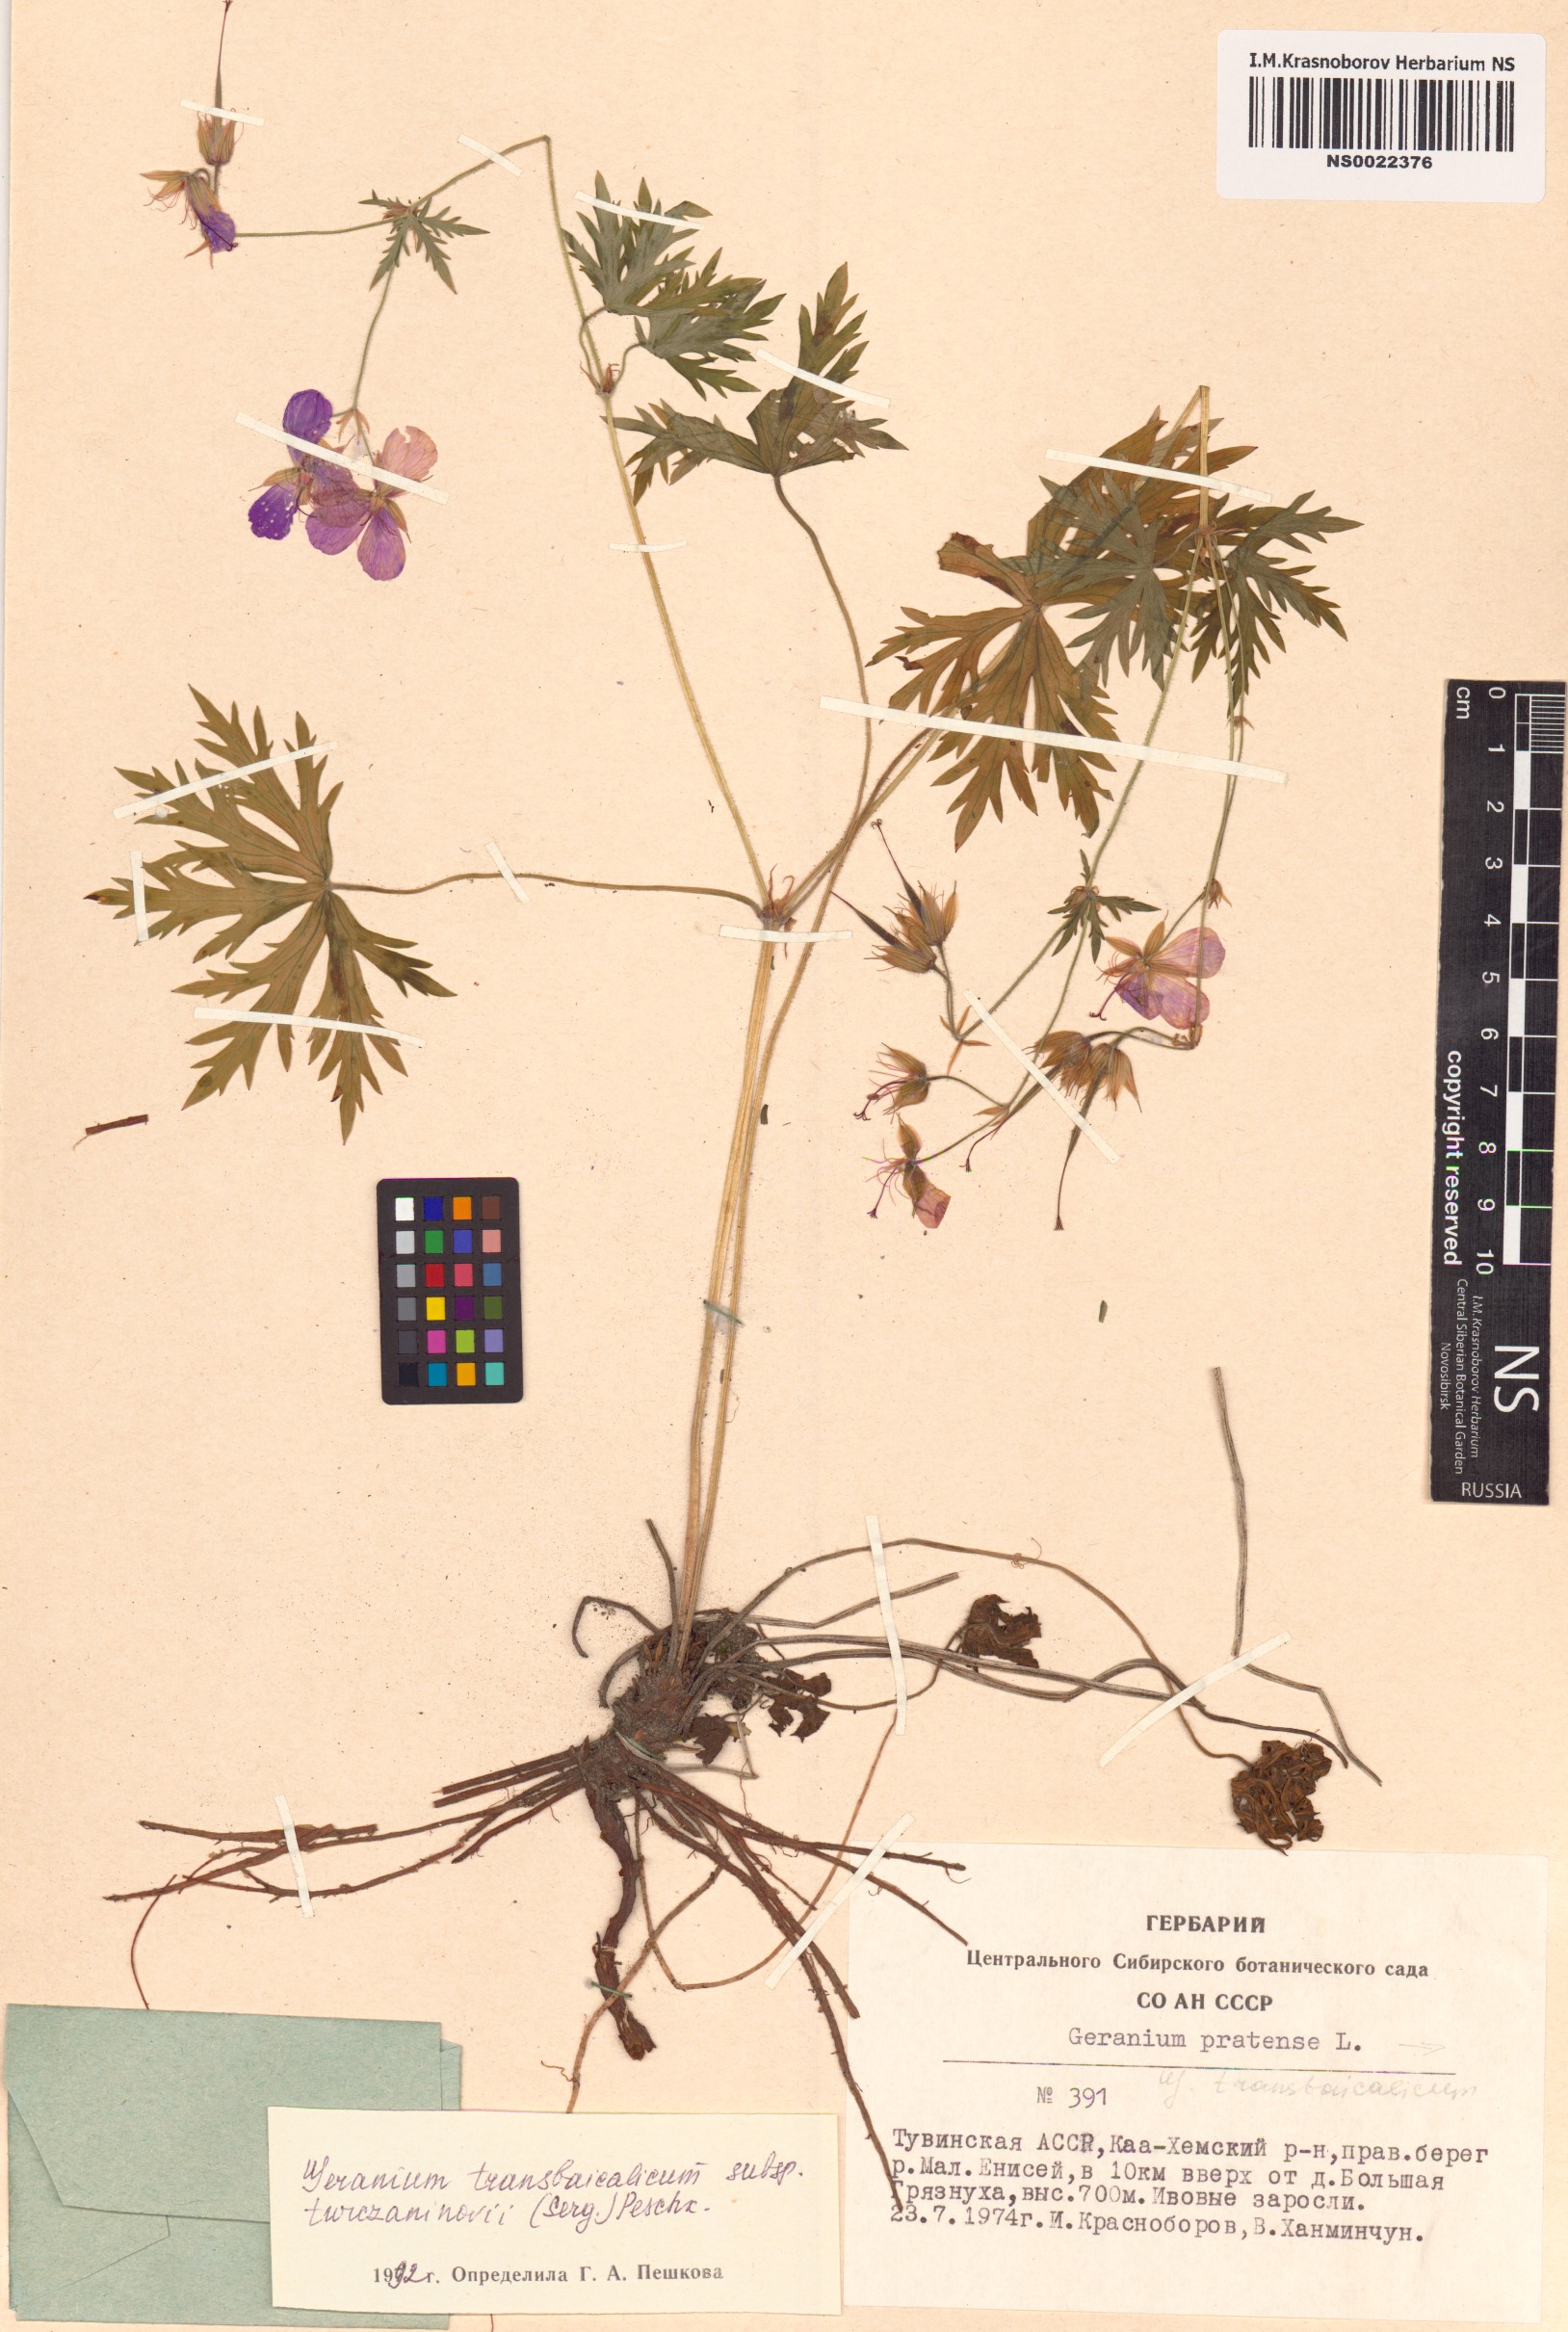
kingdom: Plantae
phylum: Tracheophyta
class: Magnoliopsida
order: Geraniales
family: Geraniaceae
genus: Geranium
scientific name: Geranium pratense
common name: Meadow crane's-bill
